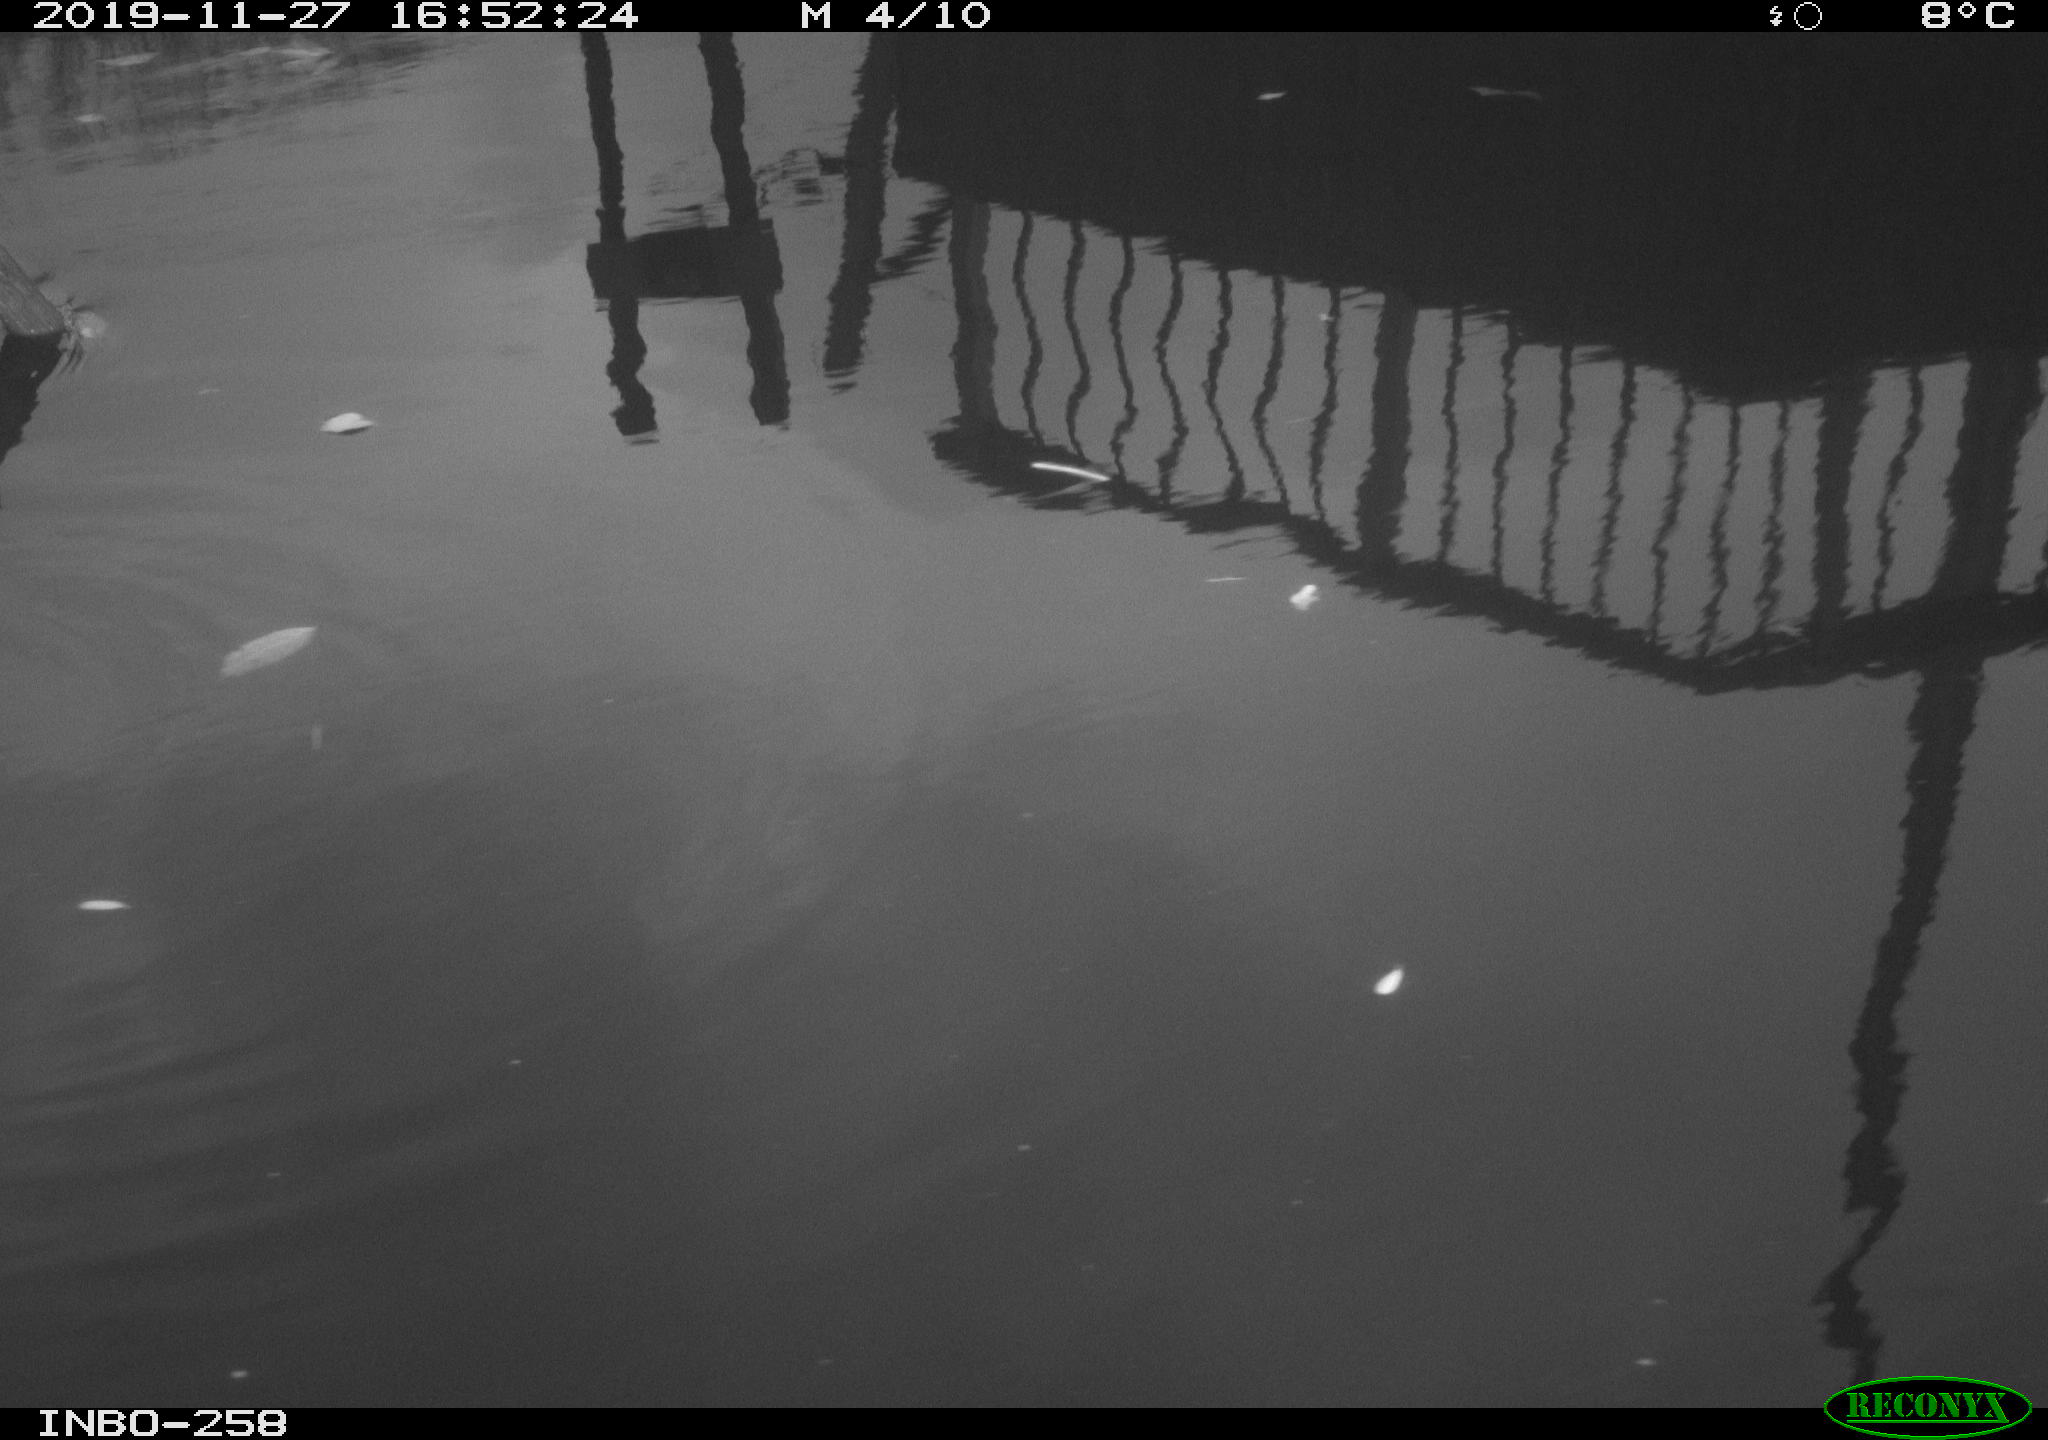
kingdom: Animalia
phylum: Chordata
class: Aves
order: Gruiformes
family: Rallidae
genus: Gallinula
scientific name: Gallinula chloropus
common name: Common moorhen
